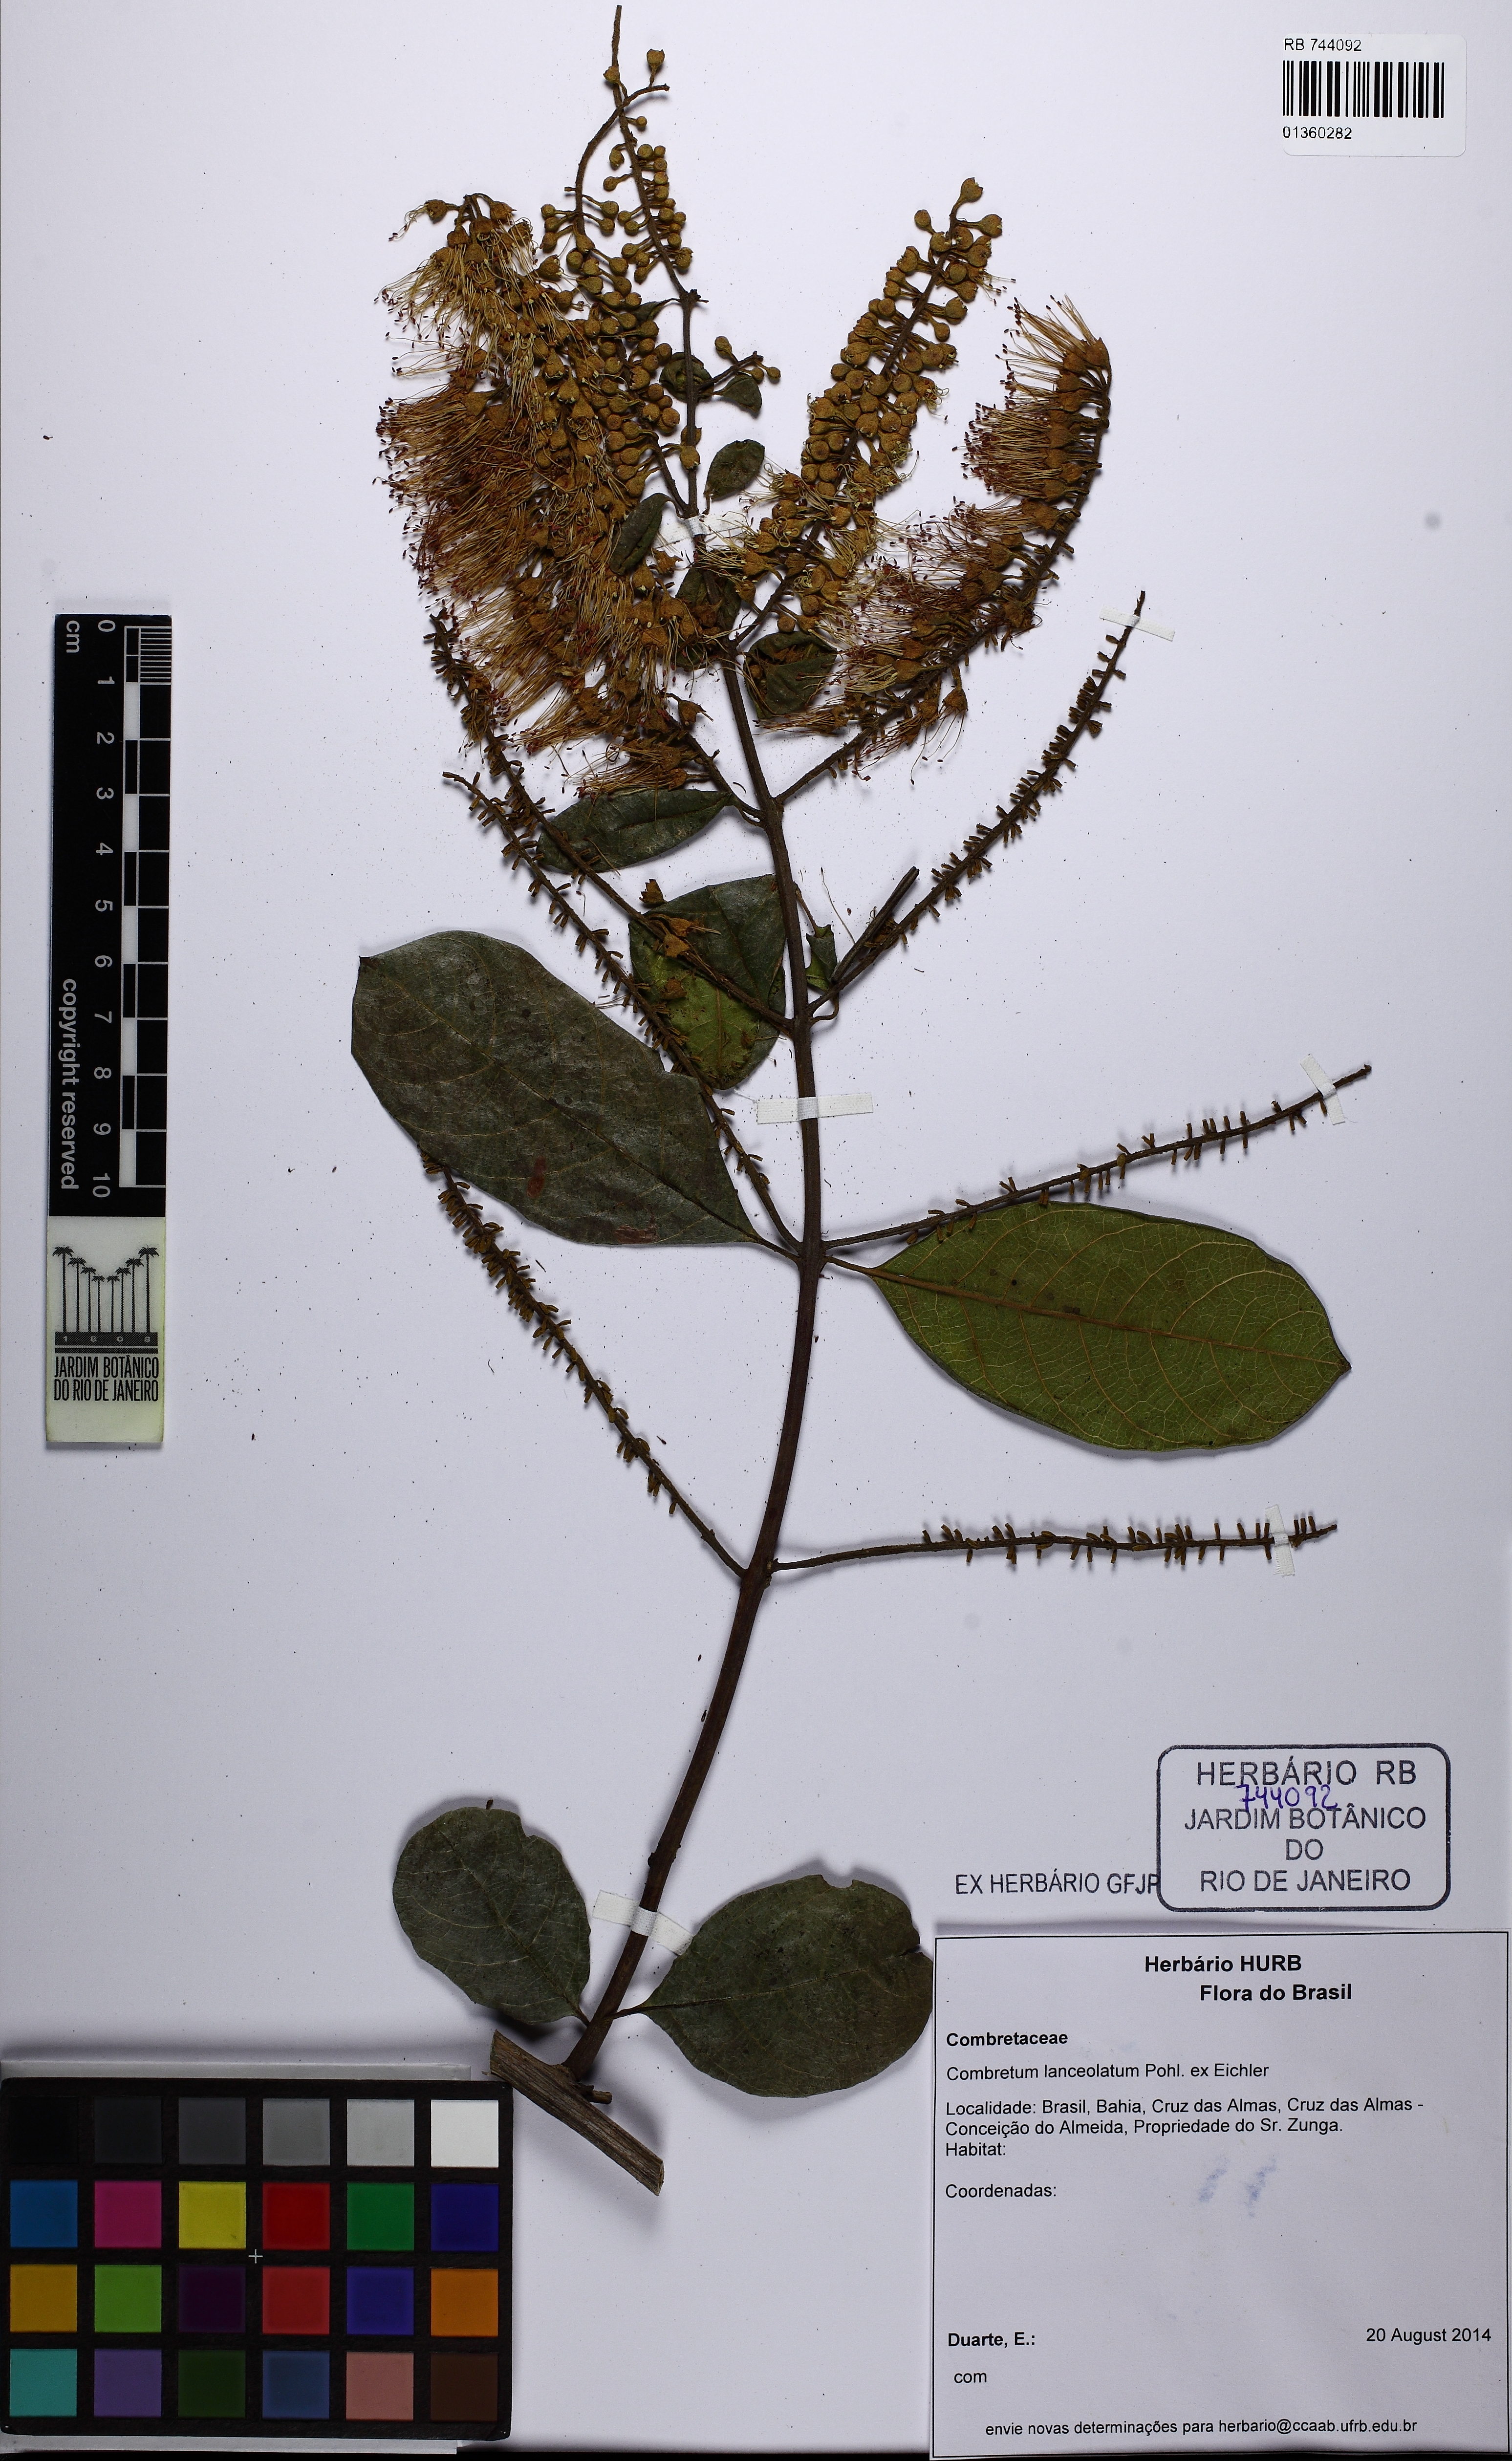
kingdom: Plantae
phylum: Tracheophyta
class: Magnoliopsida
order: Myrtales
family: Combretaceae
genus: Combretum
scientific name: Combretum lanceolatum
